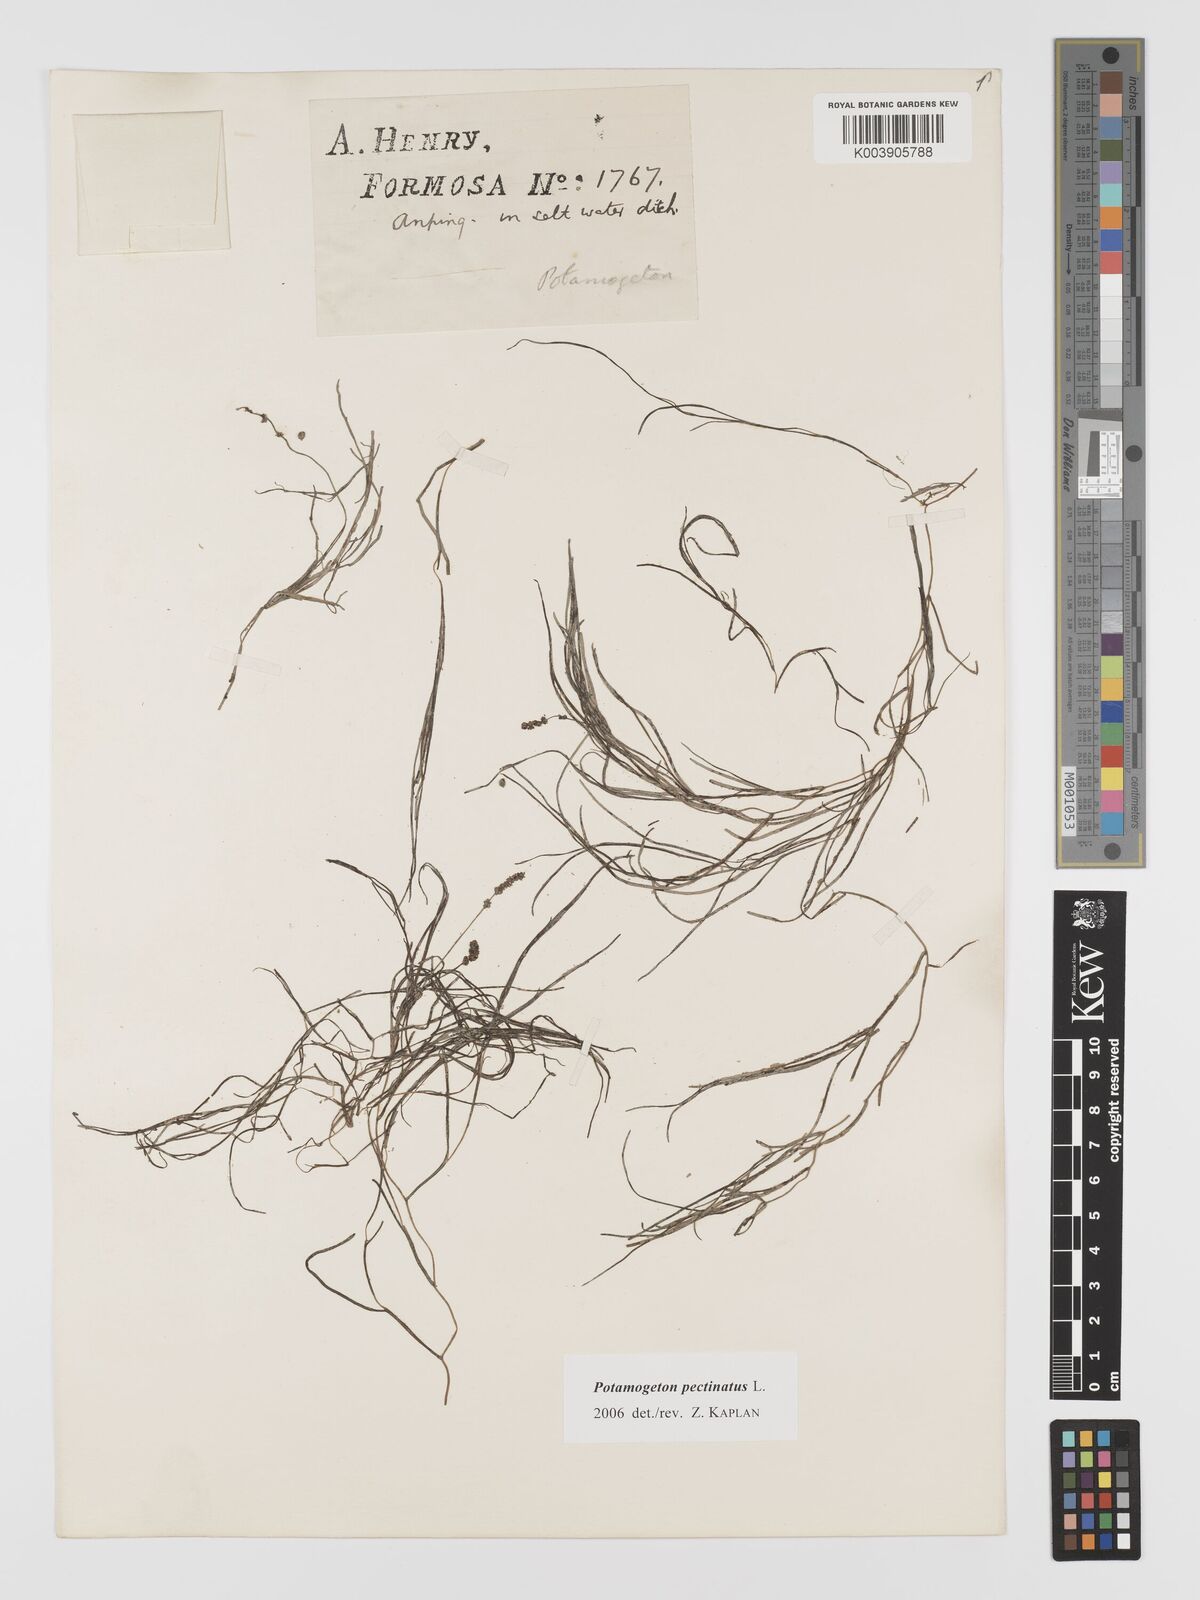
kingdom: Plantae
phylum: Tracheophyta
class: Liliopsida
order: Alismatales
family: Potamogetonaceae
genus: Stuckenia
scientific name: Stuckenia pectinata
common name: Sago pondweed
